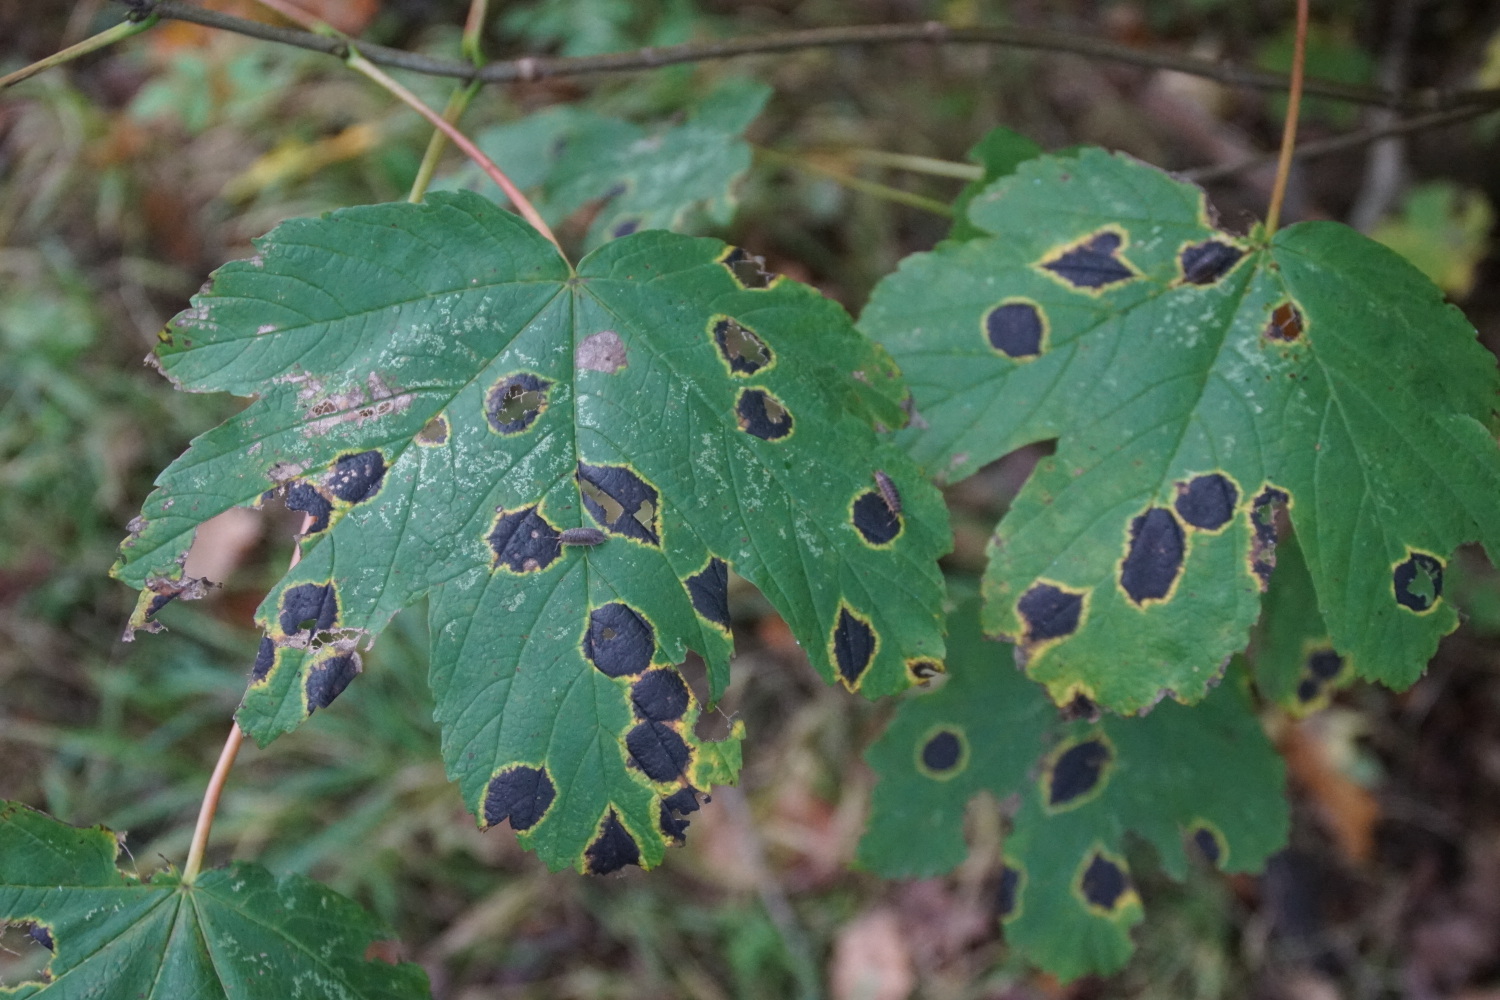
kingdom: Fungi
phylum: Ascomycota
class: Leotiomycetes
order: Rhytismatales
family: Rhytismataceae
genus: Rhytisma
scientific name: Rhytisma acerinum
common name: ahorn-rynkeplet
